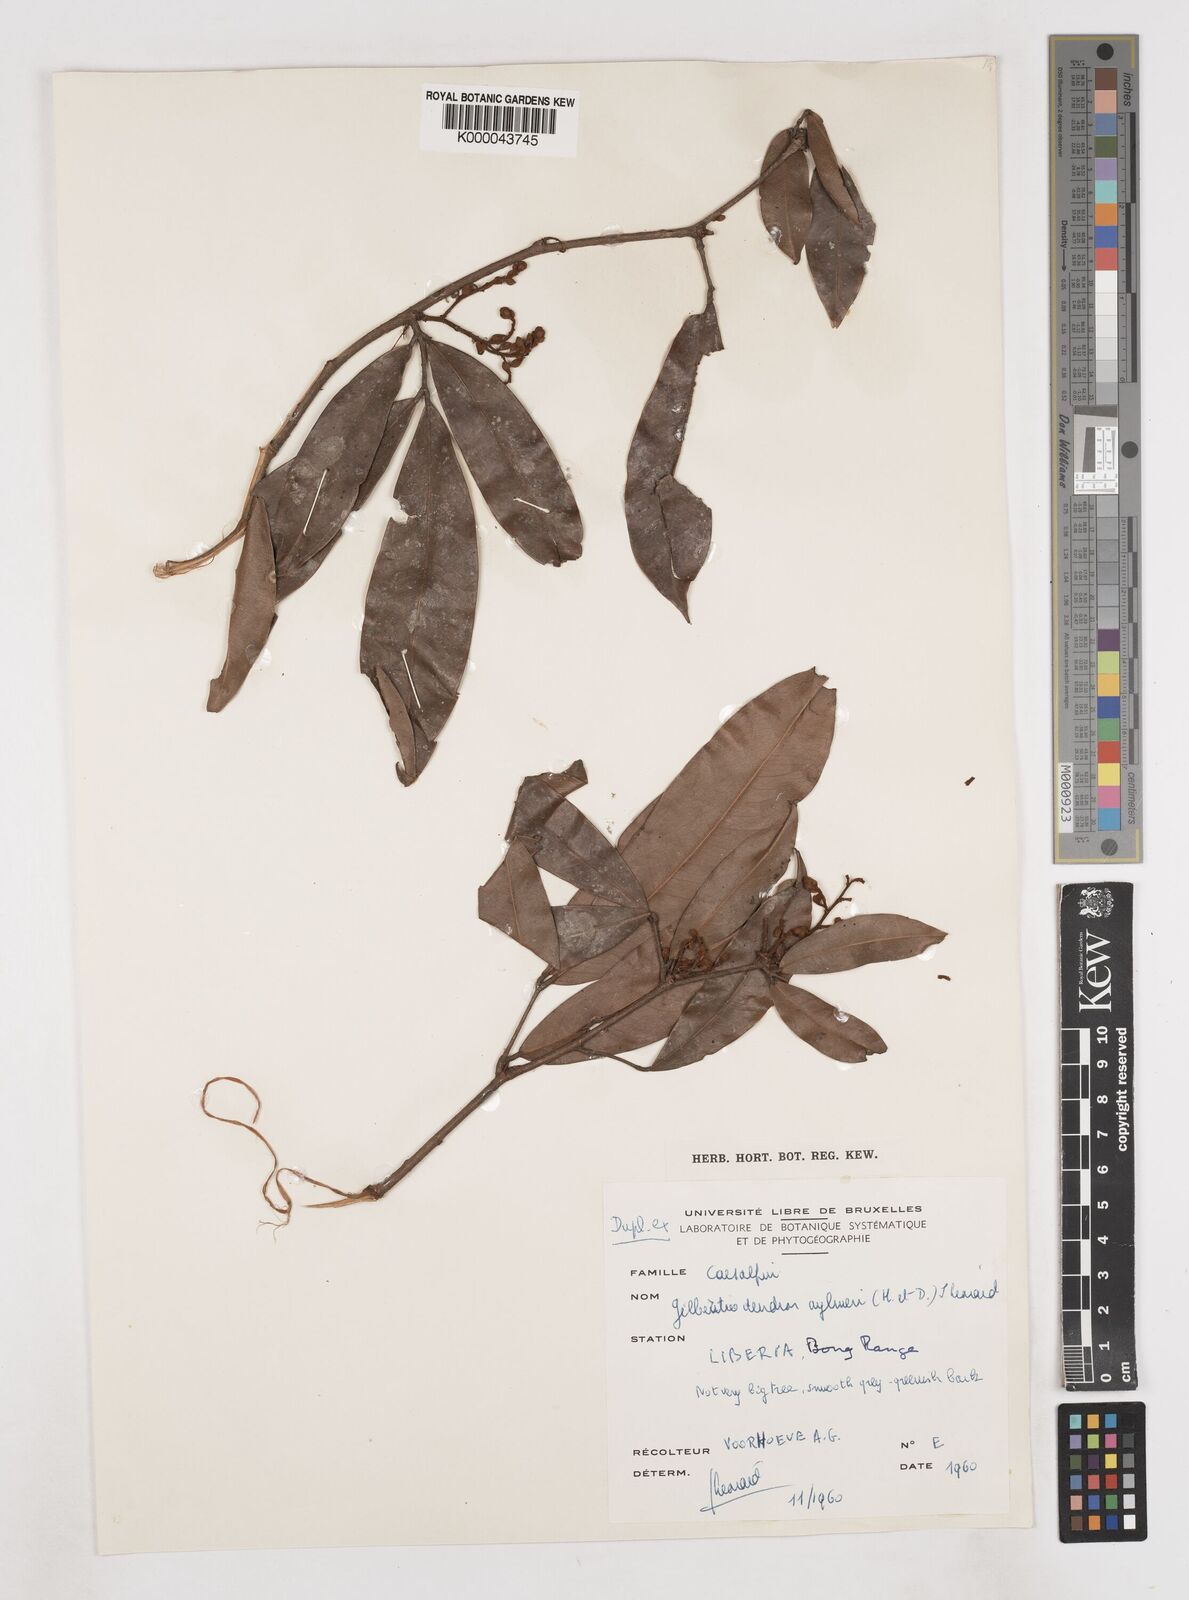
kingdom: Plantae
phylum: Tracheophyta
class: Magnoliopsida
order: Fabales
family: Fabaceae
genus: Gilbertiodendron
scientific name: Gilbertiodendron
